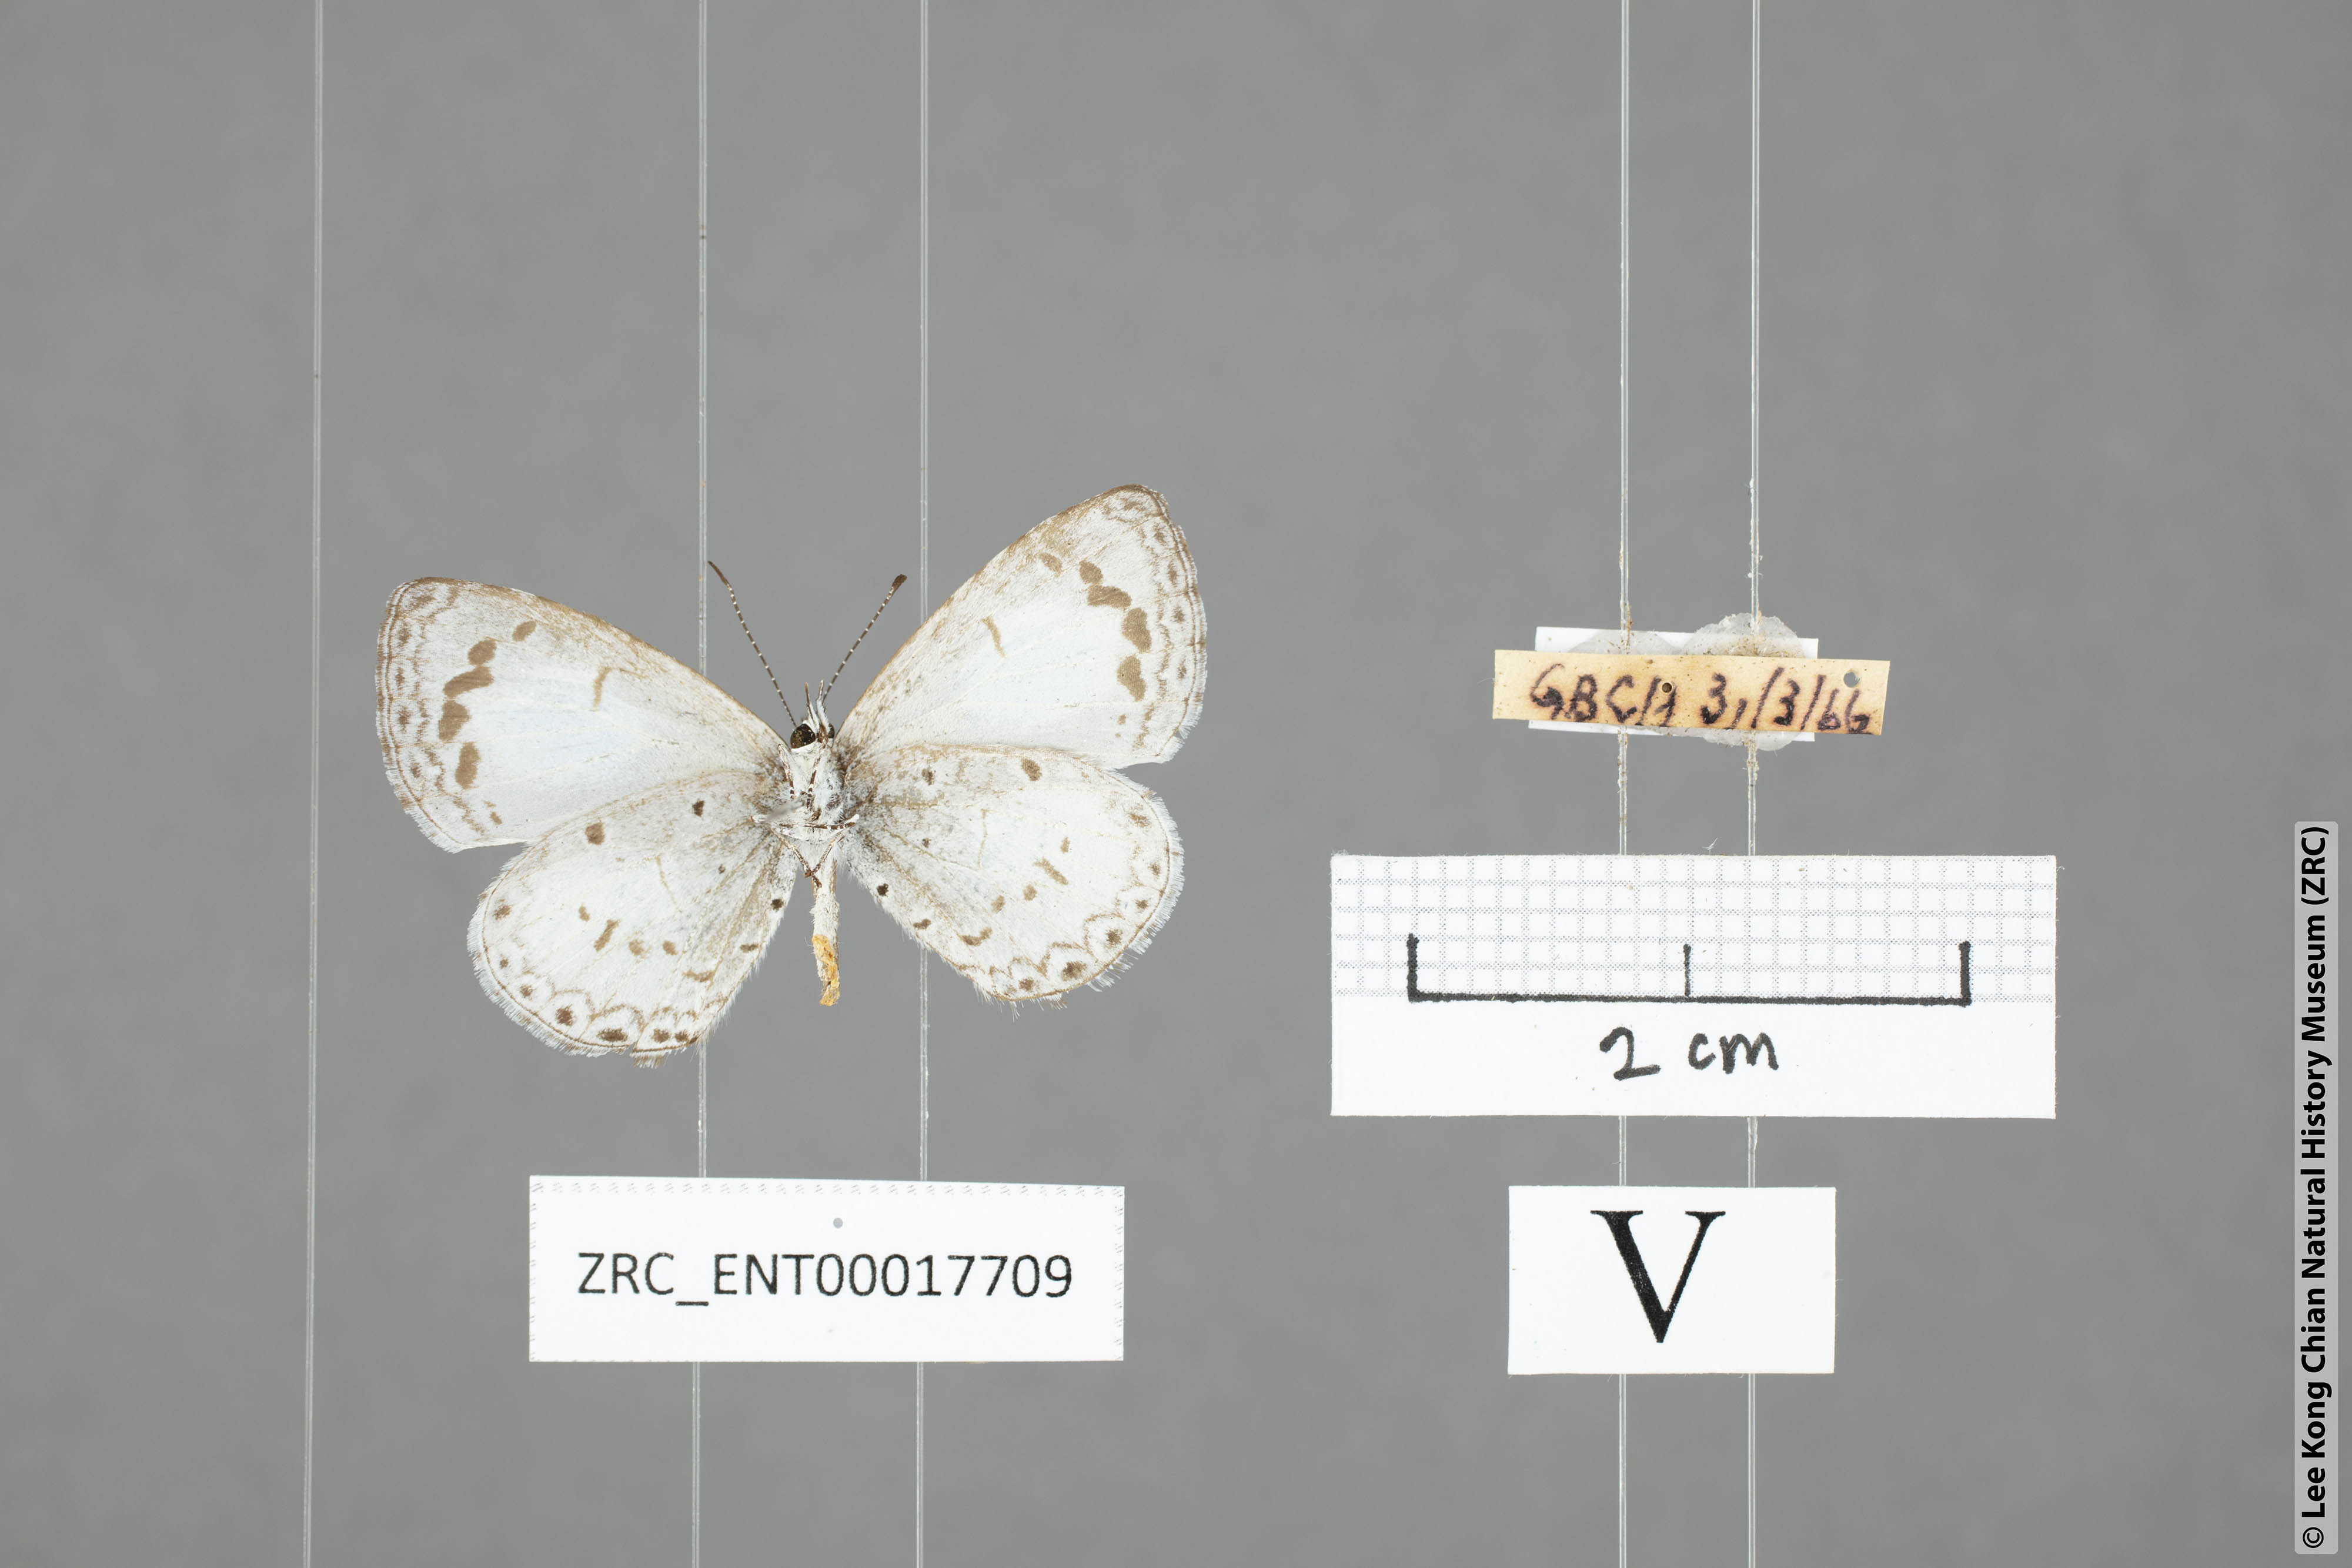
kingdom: Animalia
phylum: Arthropoda
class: Insecta
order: Lepidoptera
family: Lycaenidae
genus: Lycaenopsis
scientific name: Lycaenopsis marginata
